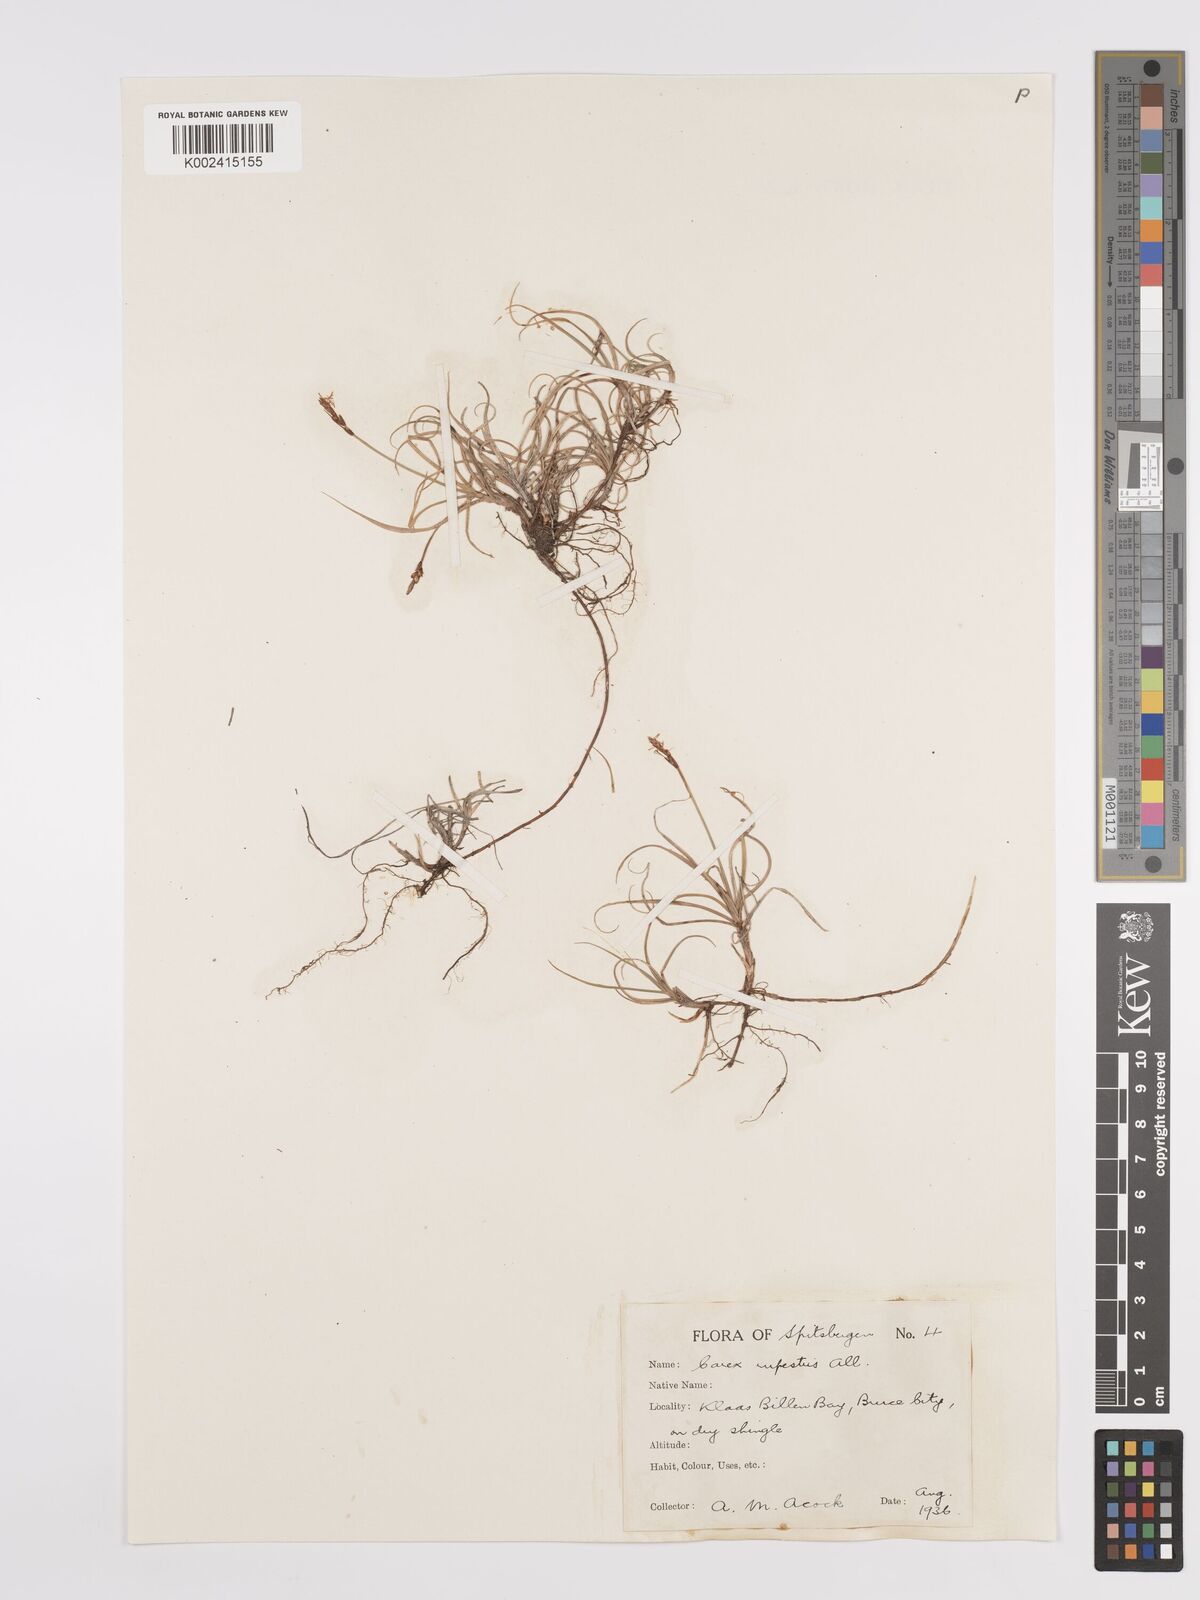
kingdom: Plantae
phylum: Tracheophyta
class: Liliopsida
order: Poales
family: Cyperaceae
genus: Carex
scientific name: Carex rupestris
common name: Rock sedge
